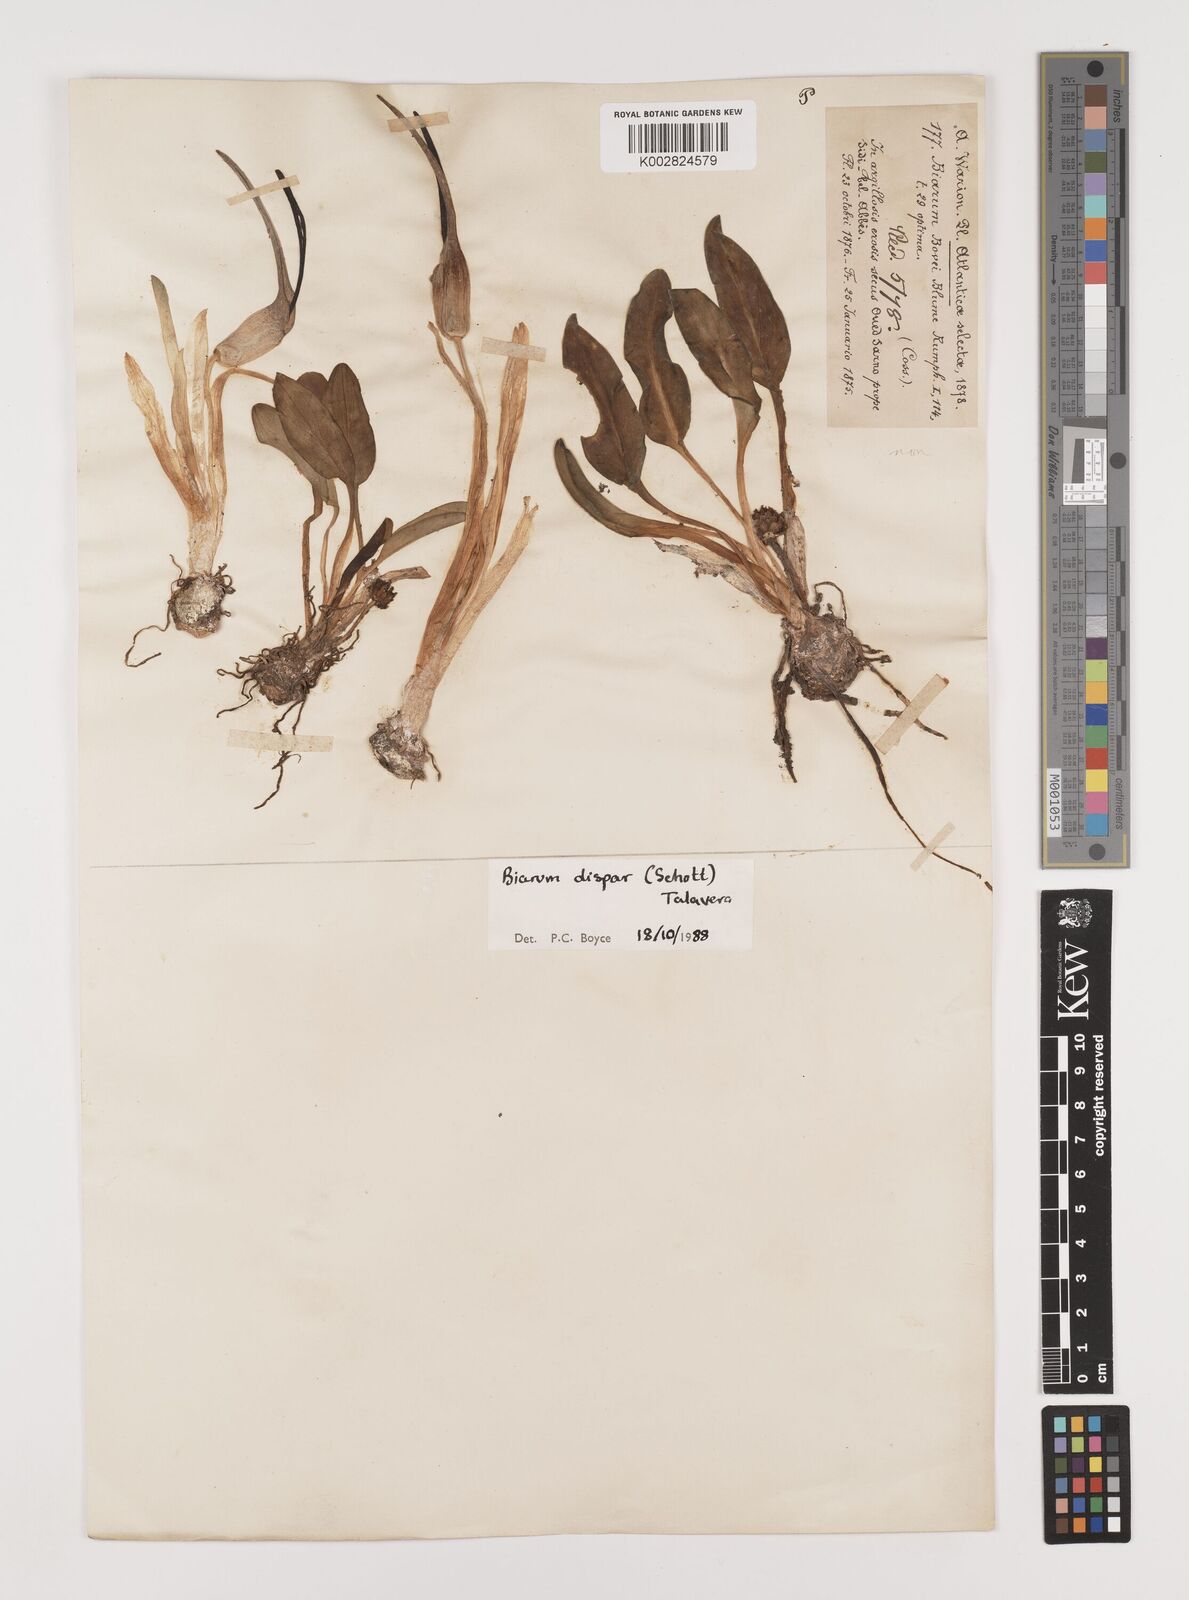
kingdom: Plantae
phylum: Tracheophyta
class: Liliopsida
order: Alismatales
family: Araceae
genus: Biarum
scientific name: Biarum dispar
